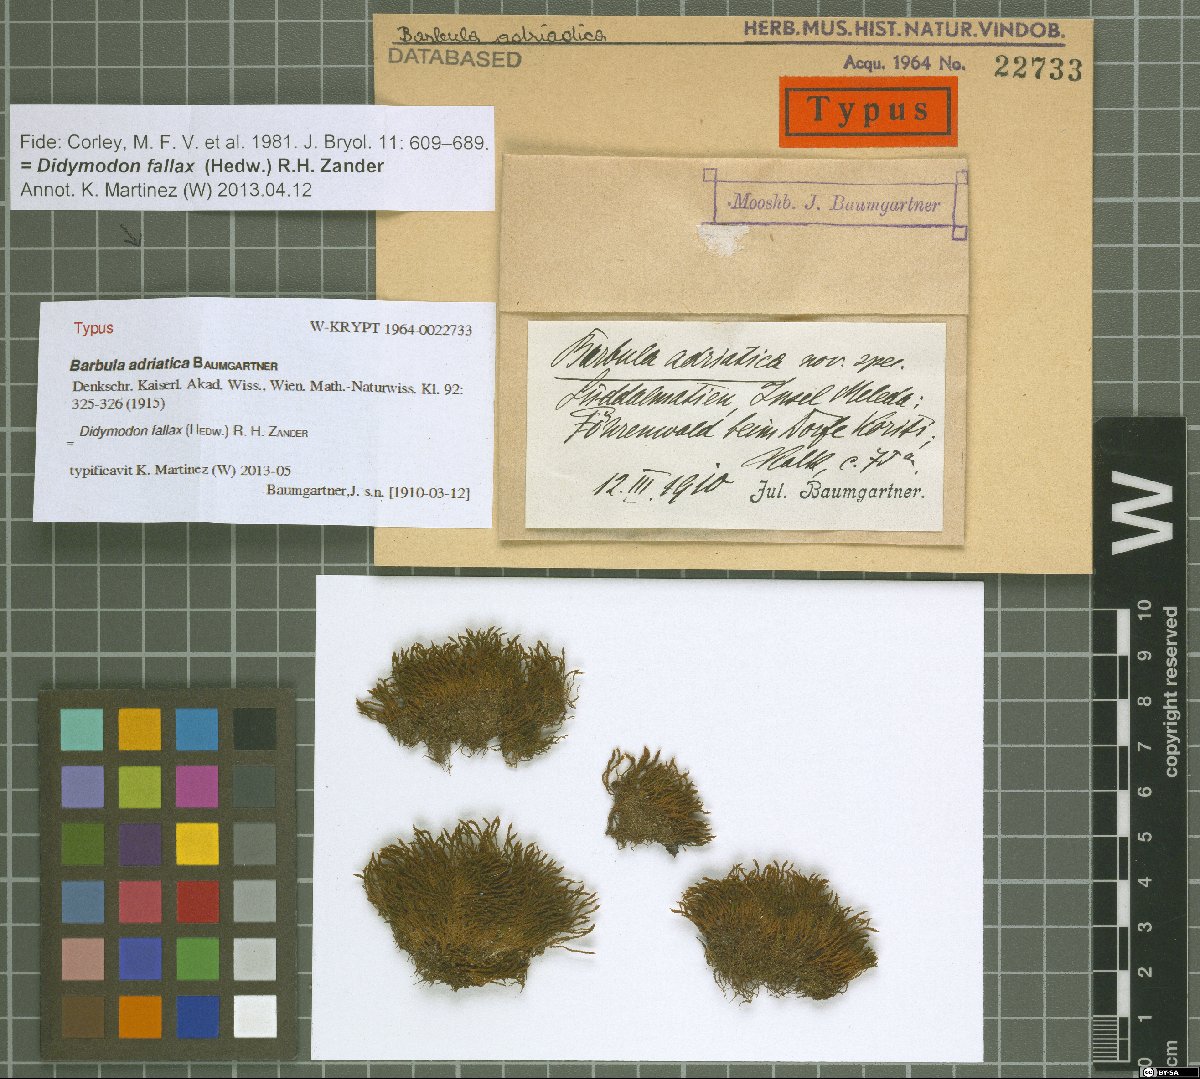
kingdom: Plantae
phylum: Bryophyta
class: Bryopsida
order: Pottiales
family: Pottiaceae
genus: Geheebia
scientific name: Geheebia fallax
